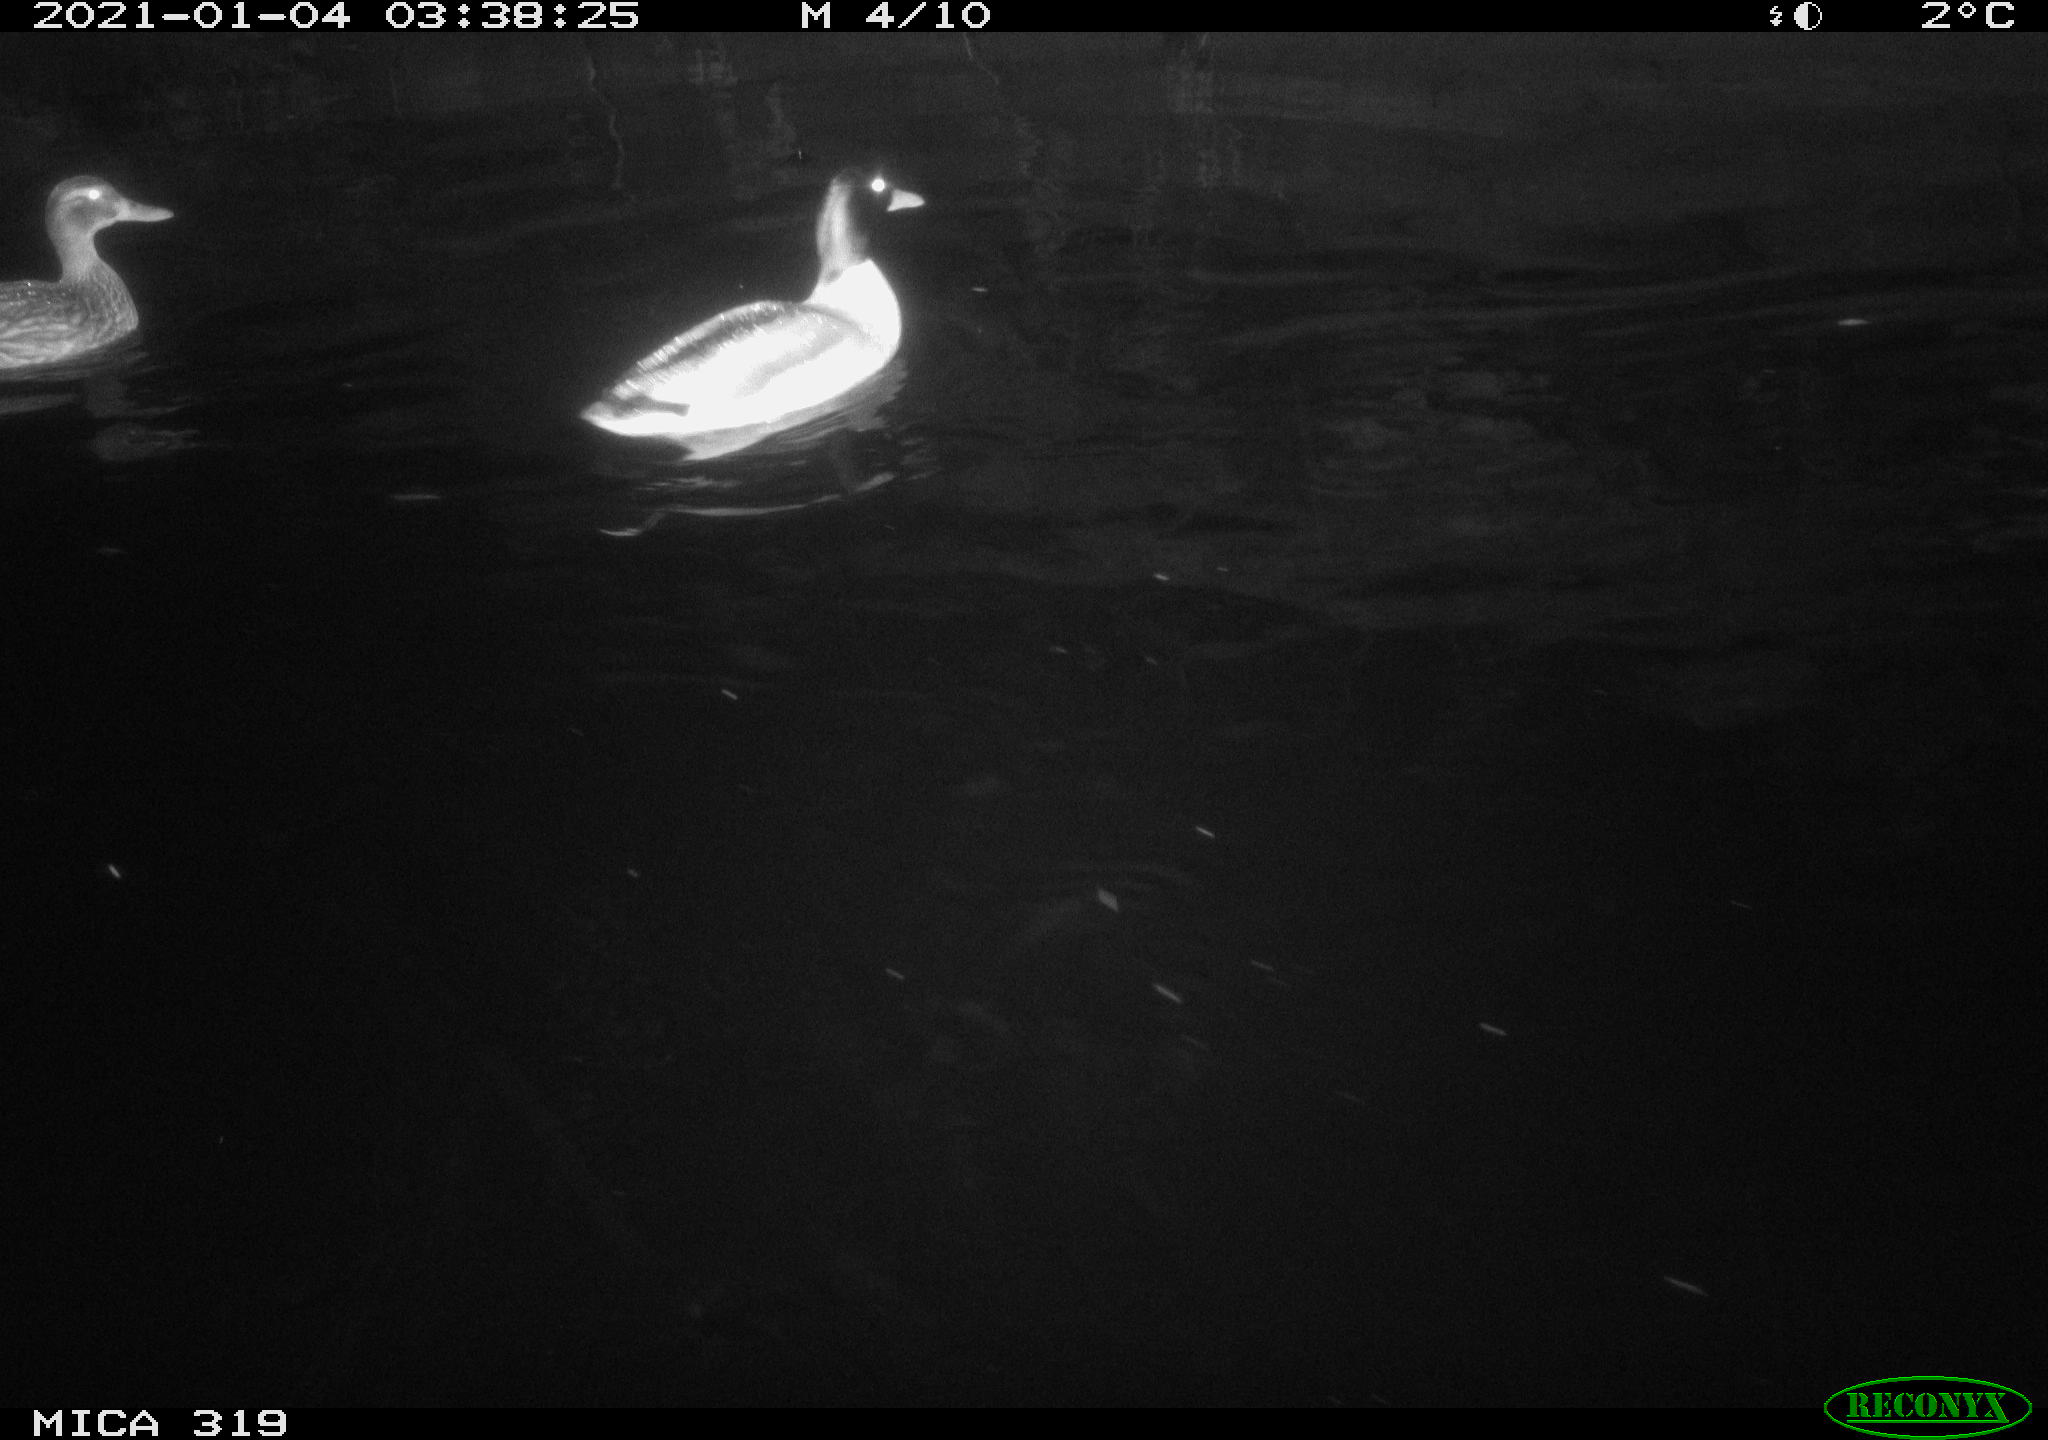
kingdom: Animalia
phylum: Chordata
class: Aves
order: Anseriformes
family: Anatidae
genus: Anas
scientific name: Anas platyrhynchos
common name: Mallard
